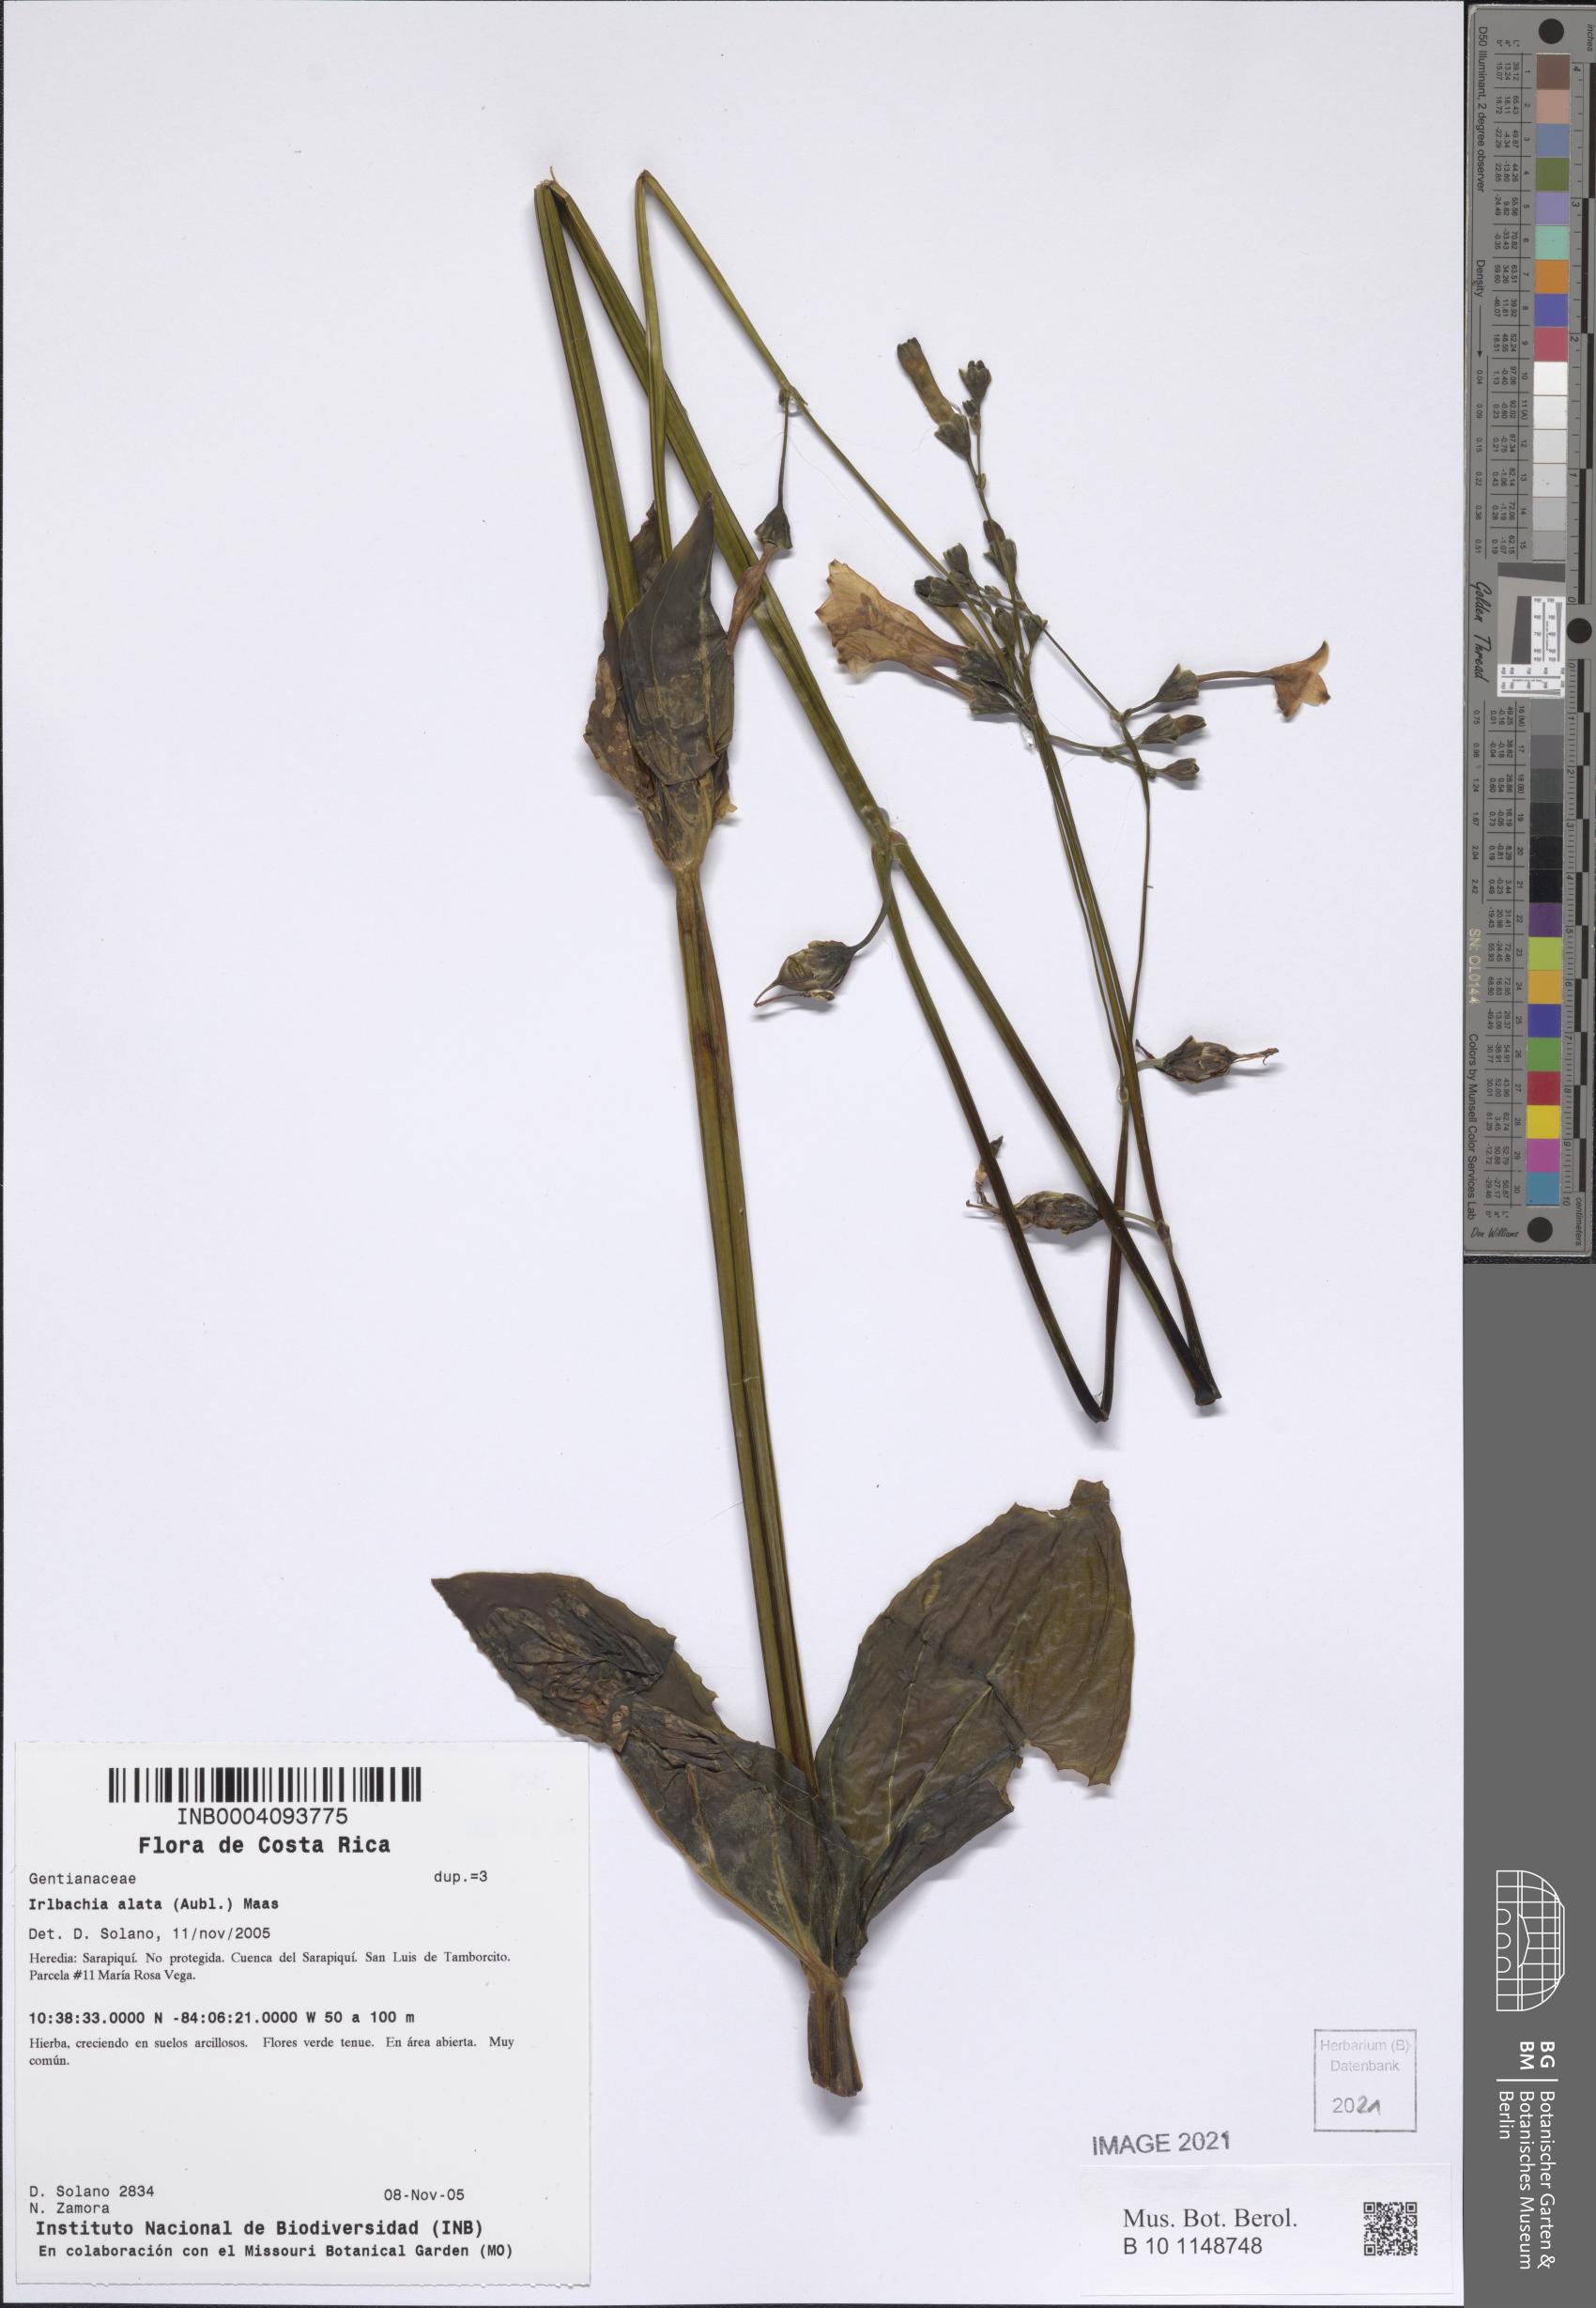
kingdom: Plantae
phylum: Tracheophyta
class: Magnoliopsida
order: Gentianales
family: Gentianaceae
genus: Chelonanthus
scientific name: Chelonanthus alatus
